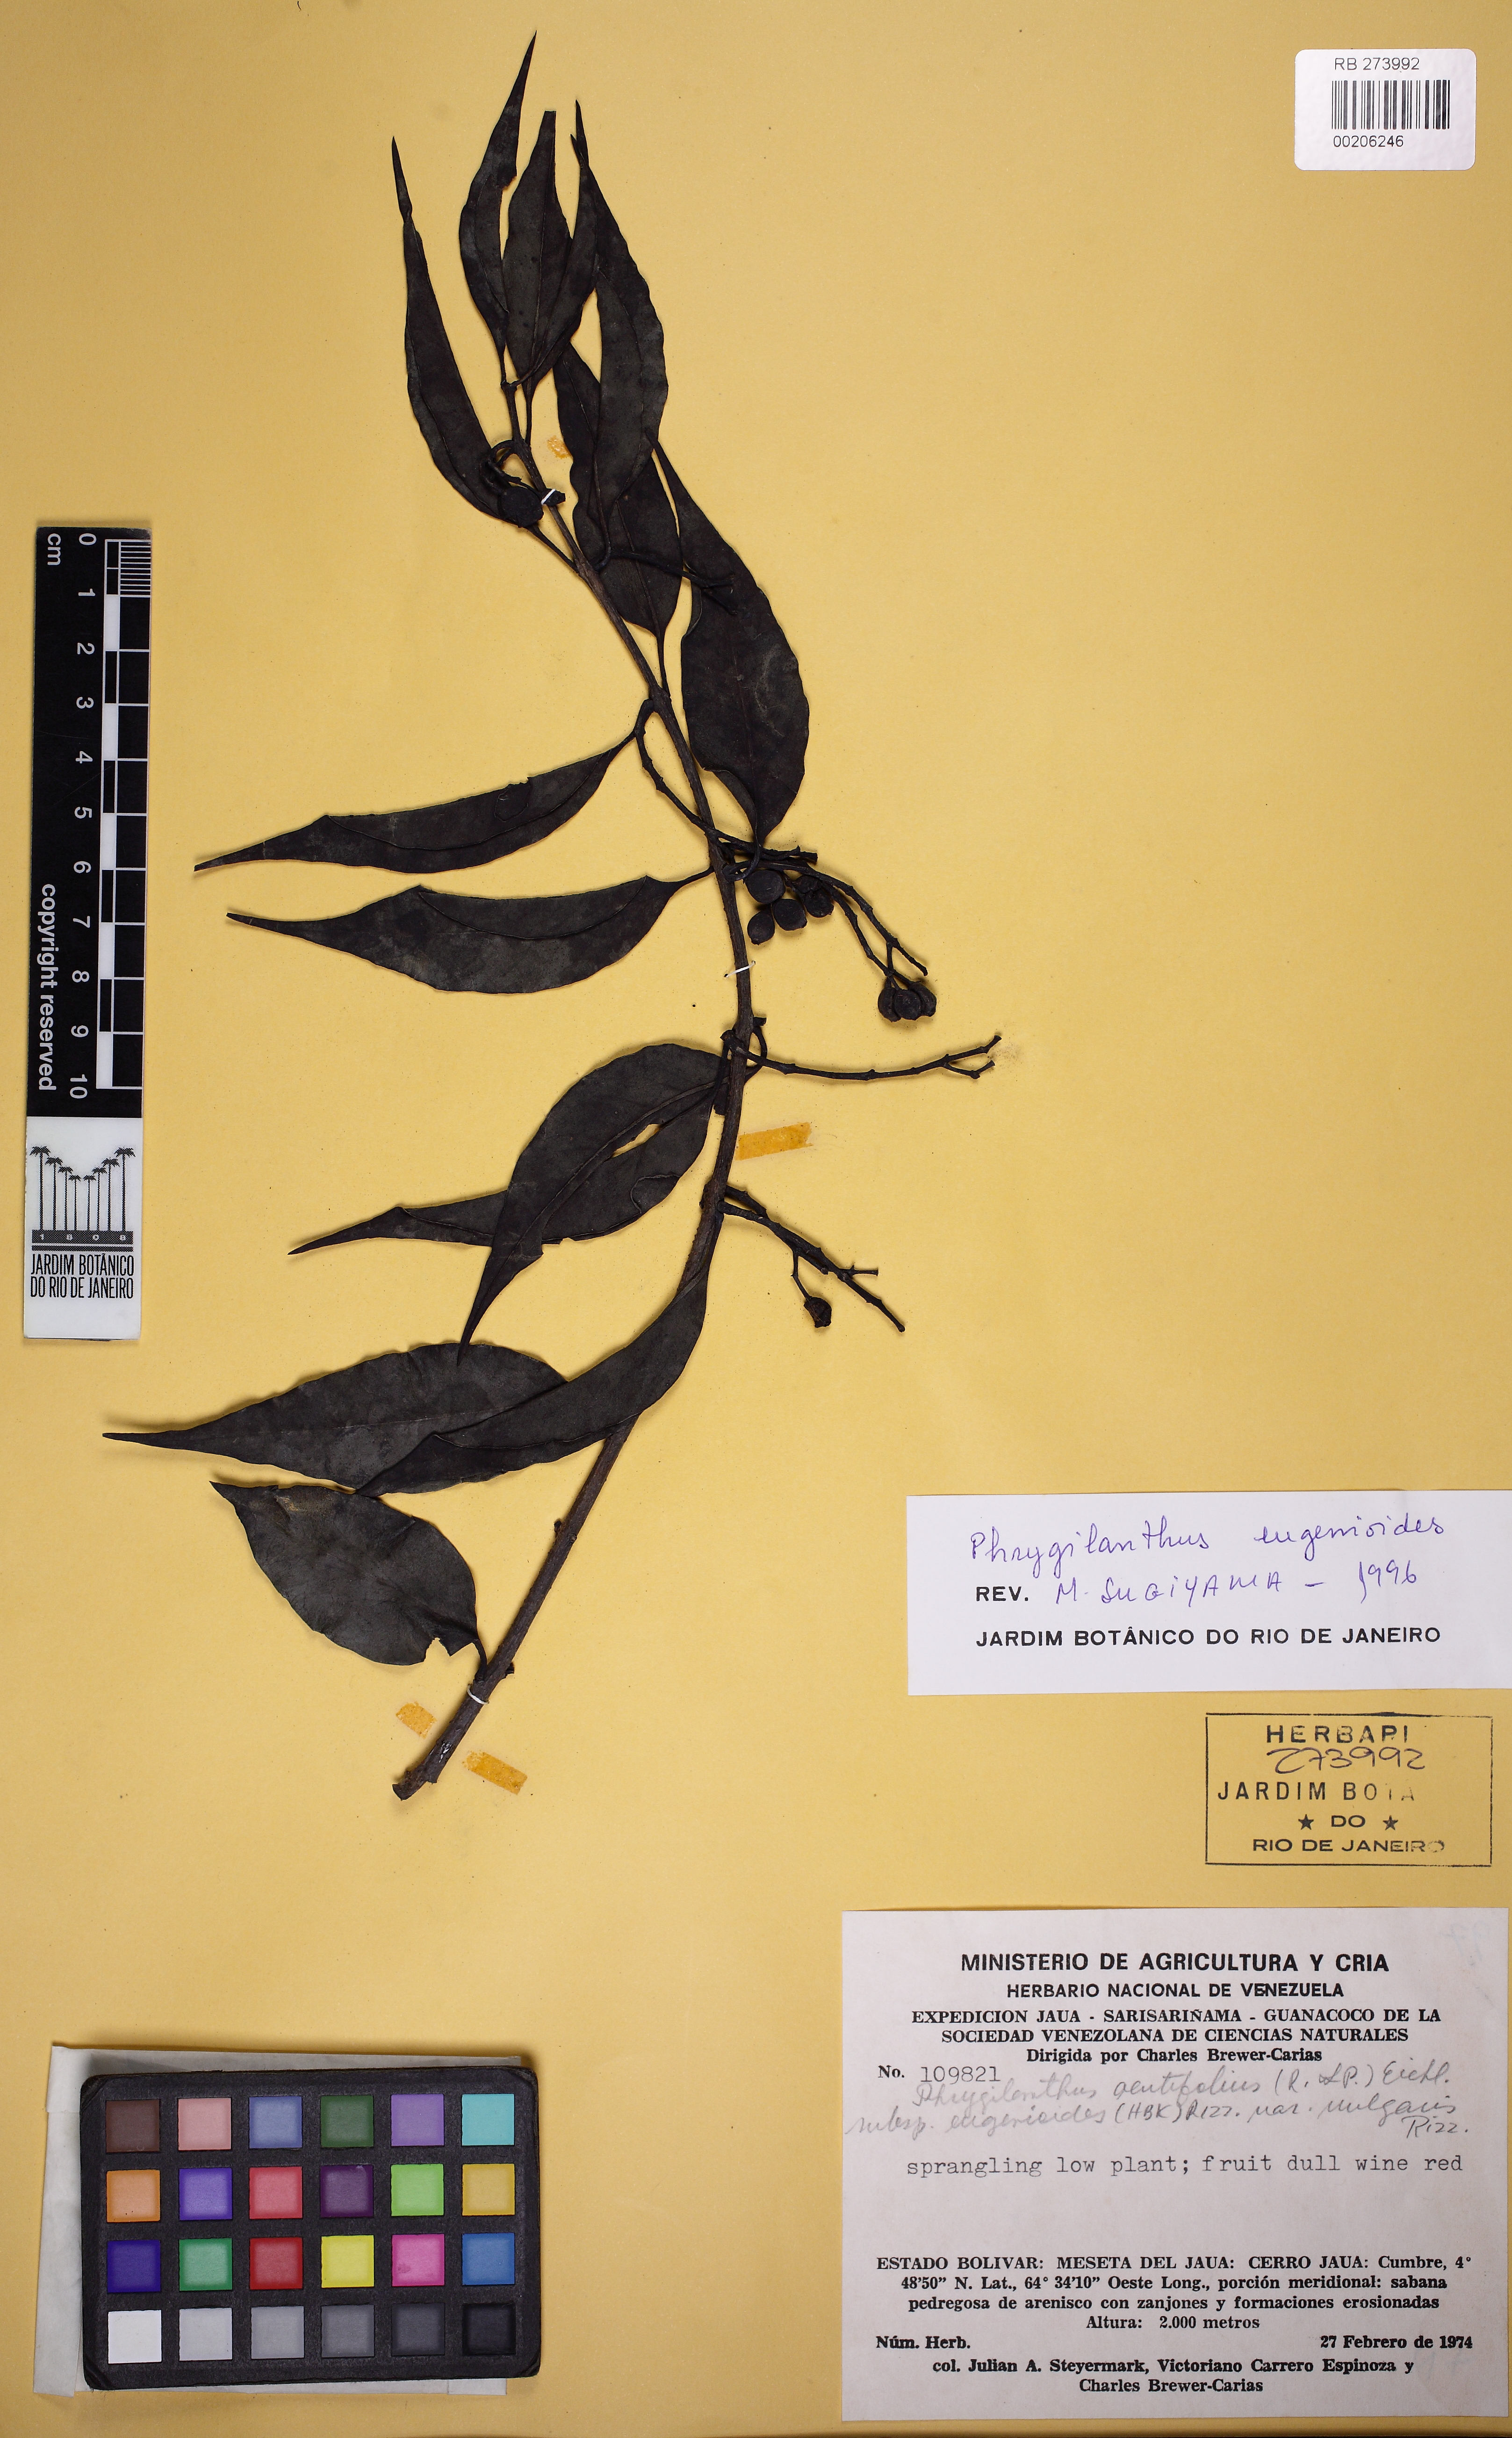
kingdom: Plantae
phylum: Tracheophyta
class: Magnoliopsida
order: Santalales
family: Loranthaceae
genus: Tripodanthus
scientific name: Tripodanthus acutifolius
